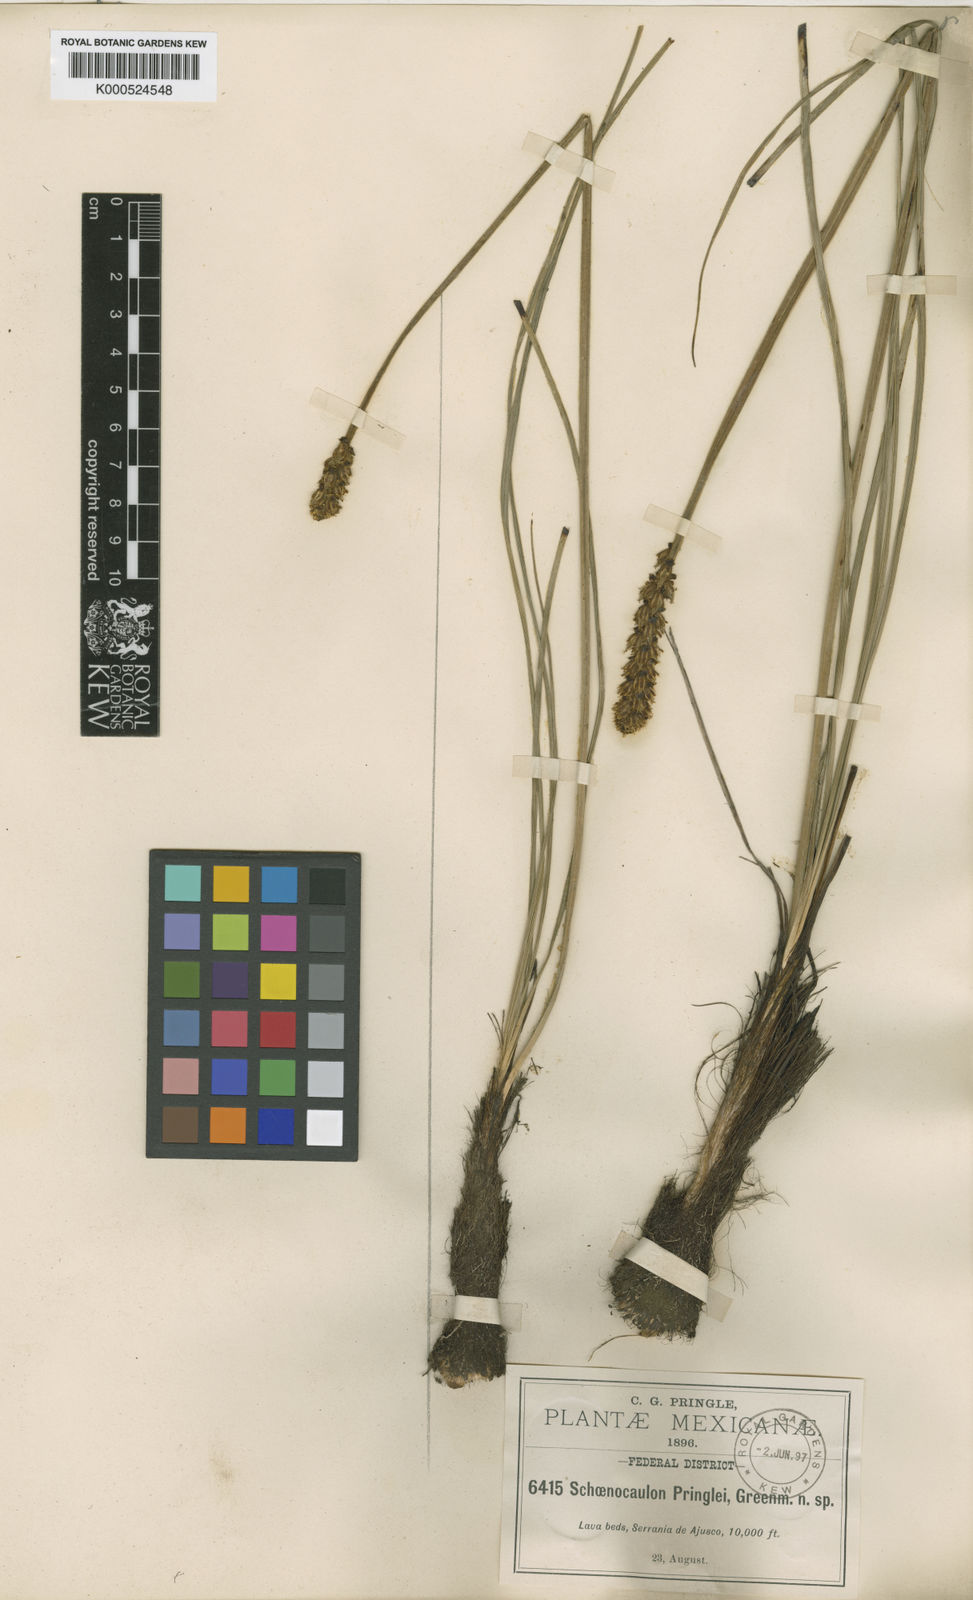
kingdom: Plantae
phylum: Tracheophyta
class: Liliopsida
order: Liliales
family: Melanthiaceae
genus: Schoenocaulon
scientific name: Schoenocaulon pringlei
